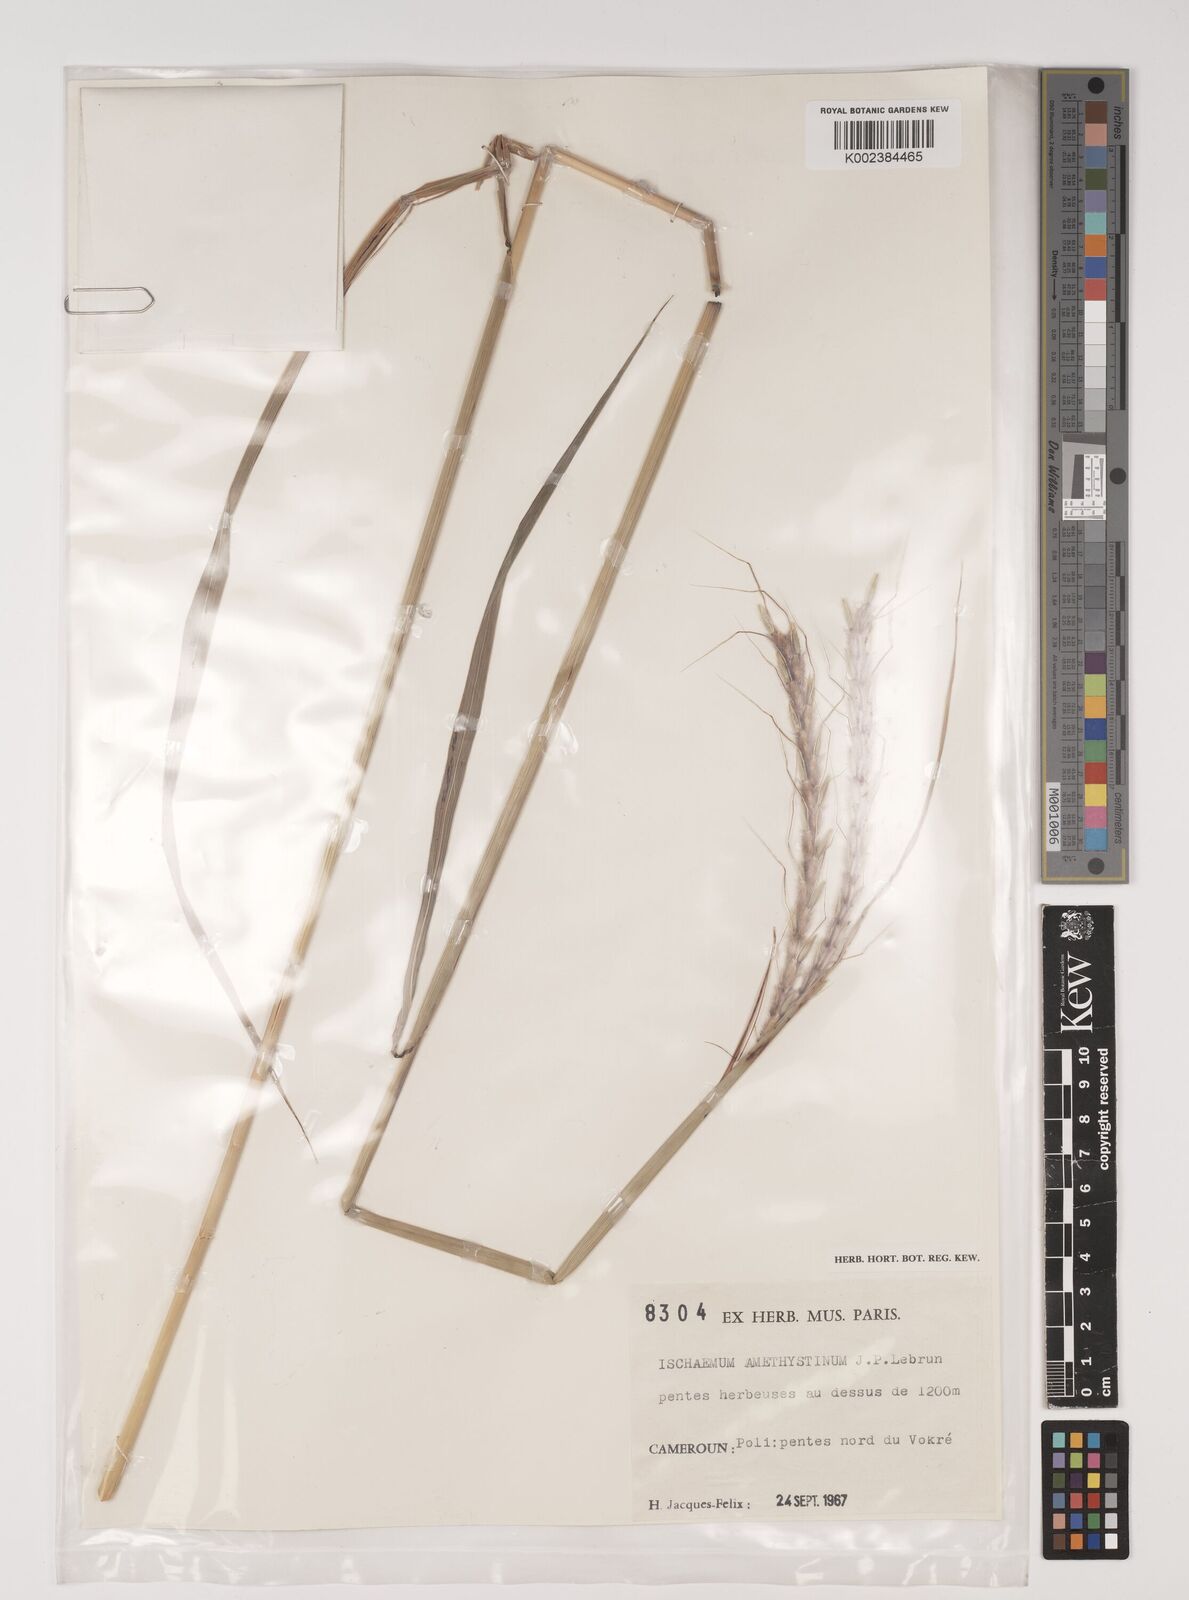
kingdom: Plantae
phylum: Tracheophyta
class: Liliopsida
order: Poales
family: Poaceae
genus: Ischaemum
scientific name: Ischaemum amethystinum
